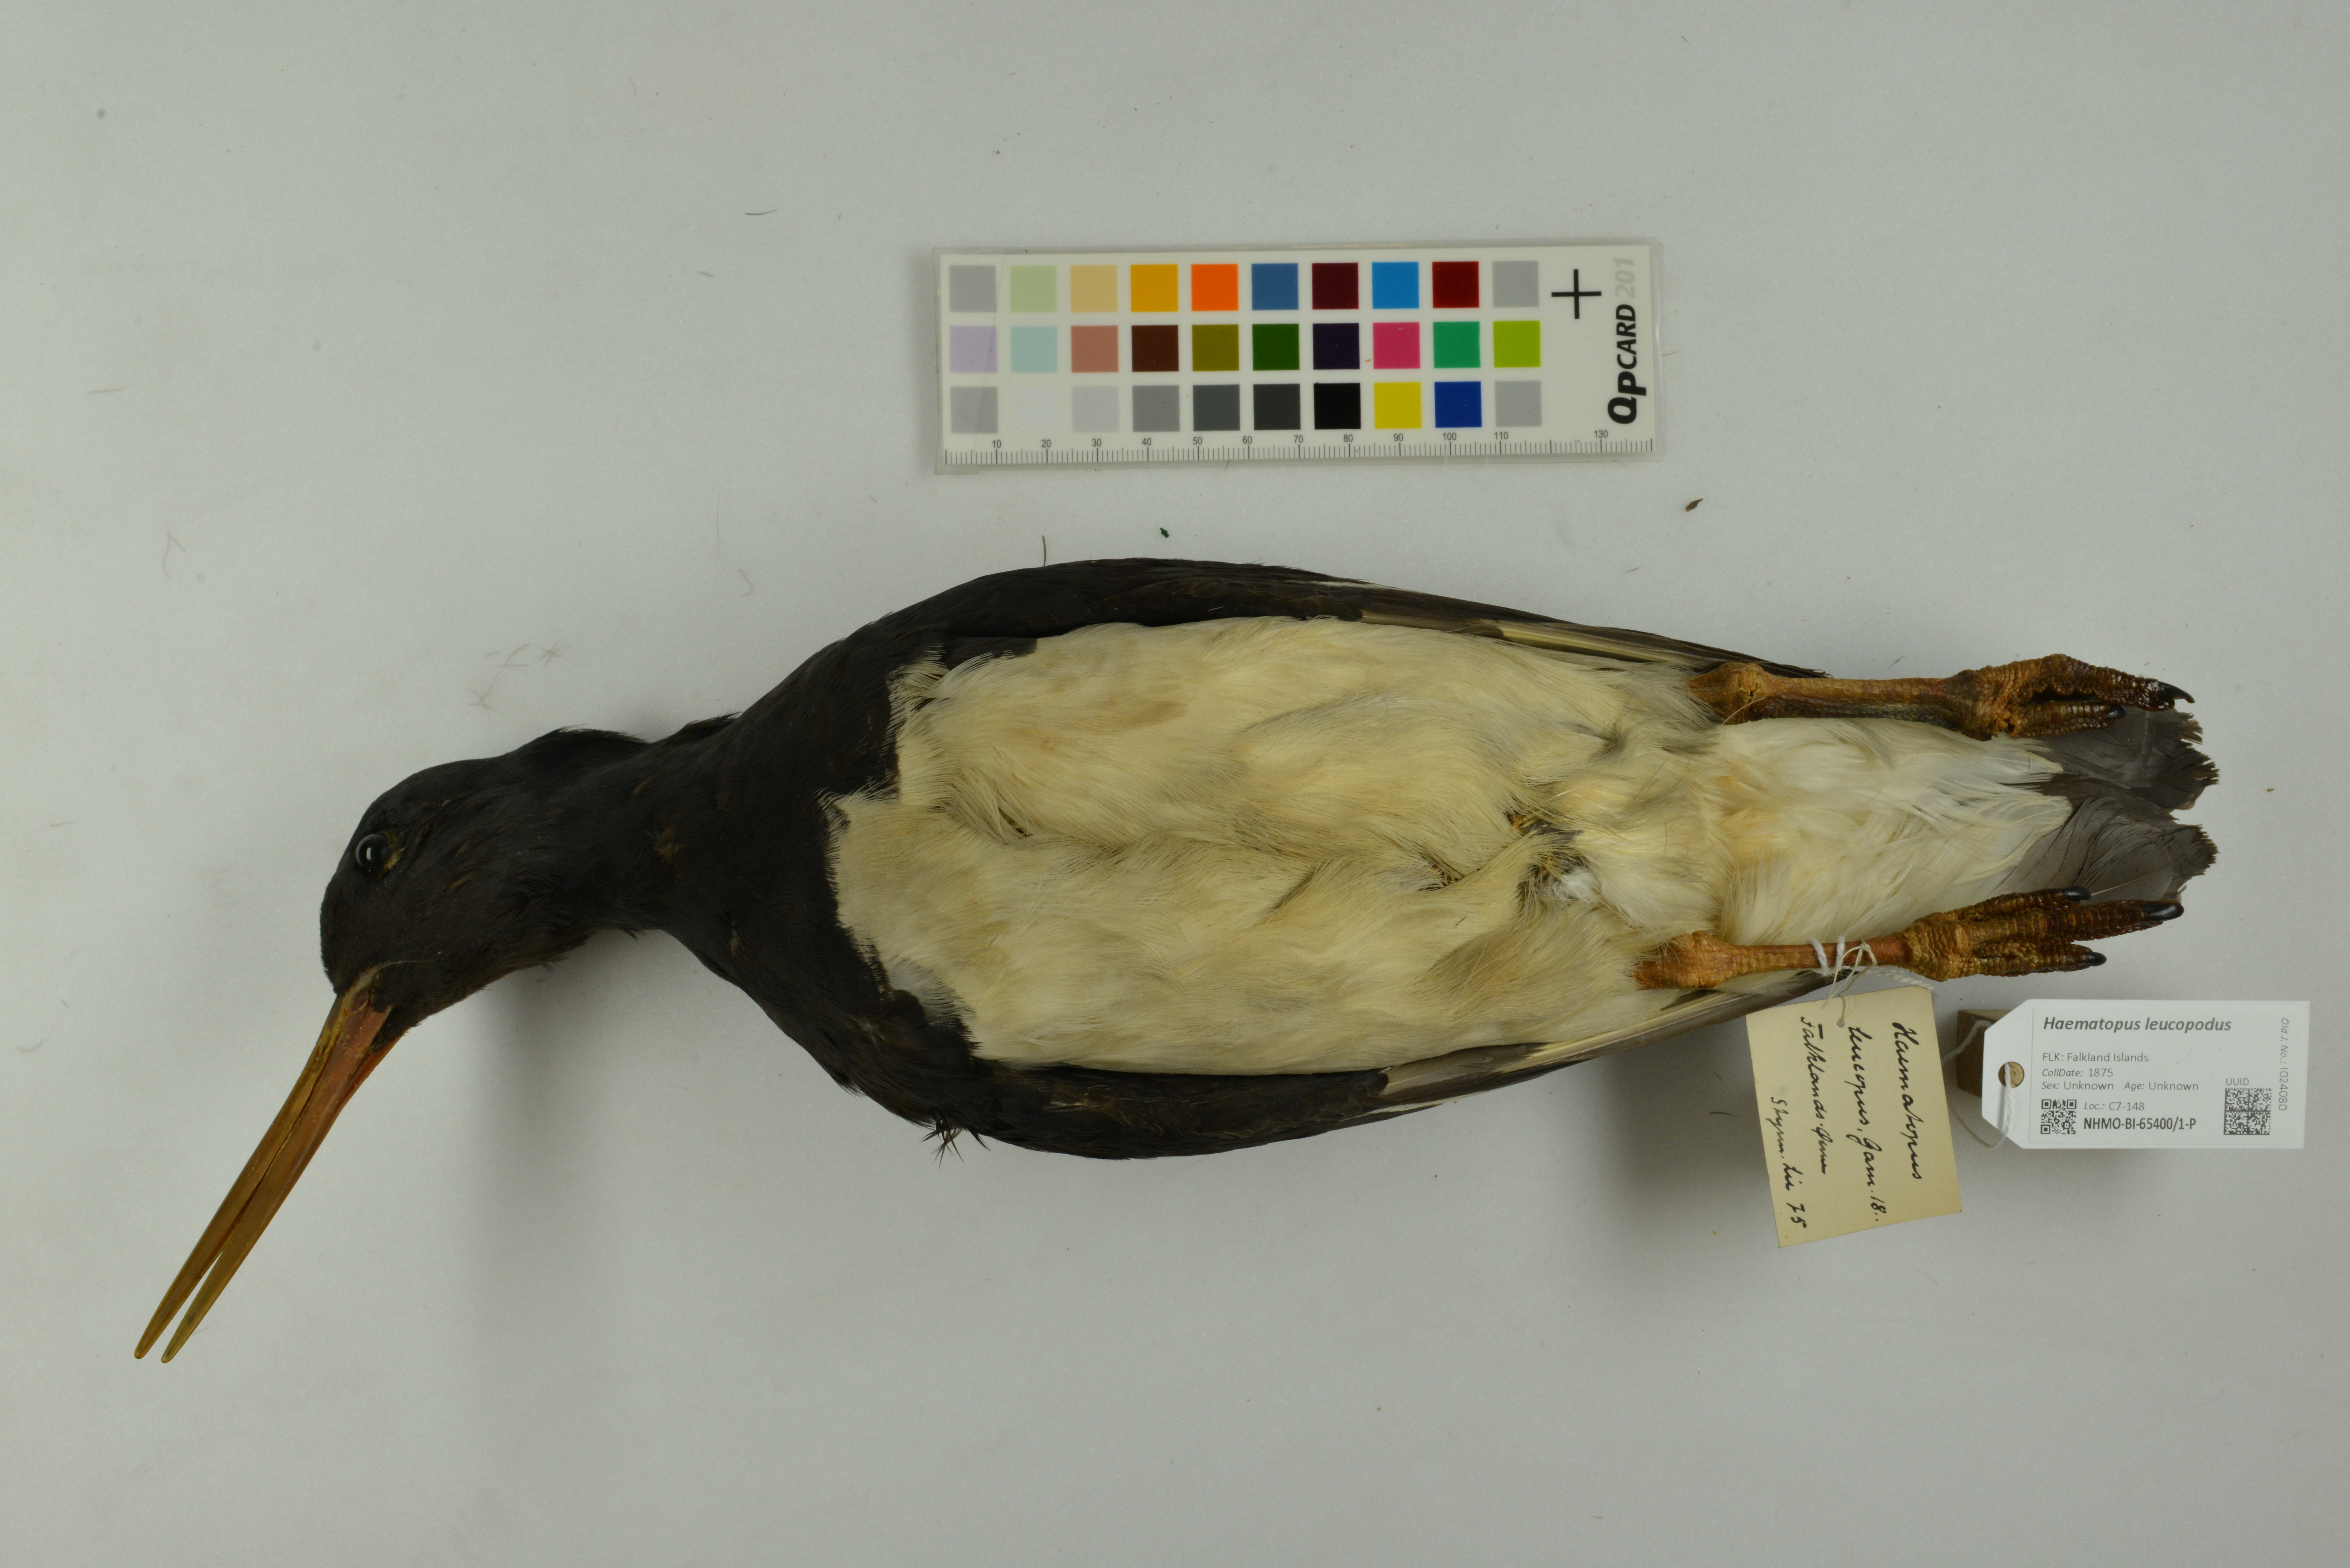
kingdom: Animalia
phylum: Chordata
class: Aves
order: Charadriiformes
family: Haematopodidae
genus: Haematopus
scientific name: Haematopus leucopodus
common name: Magellanic oystercatcher
